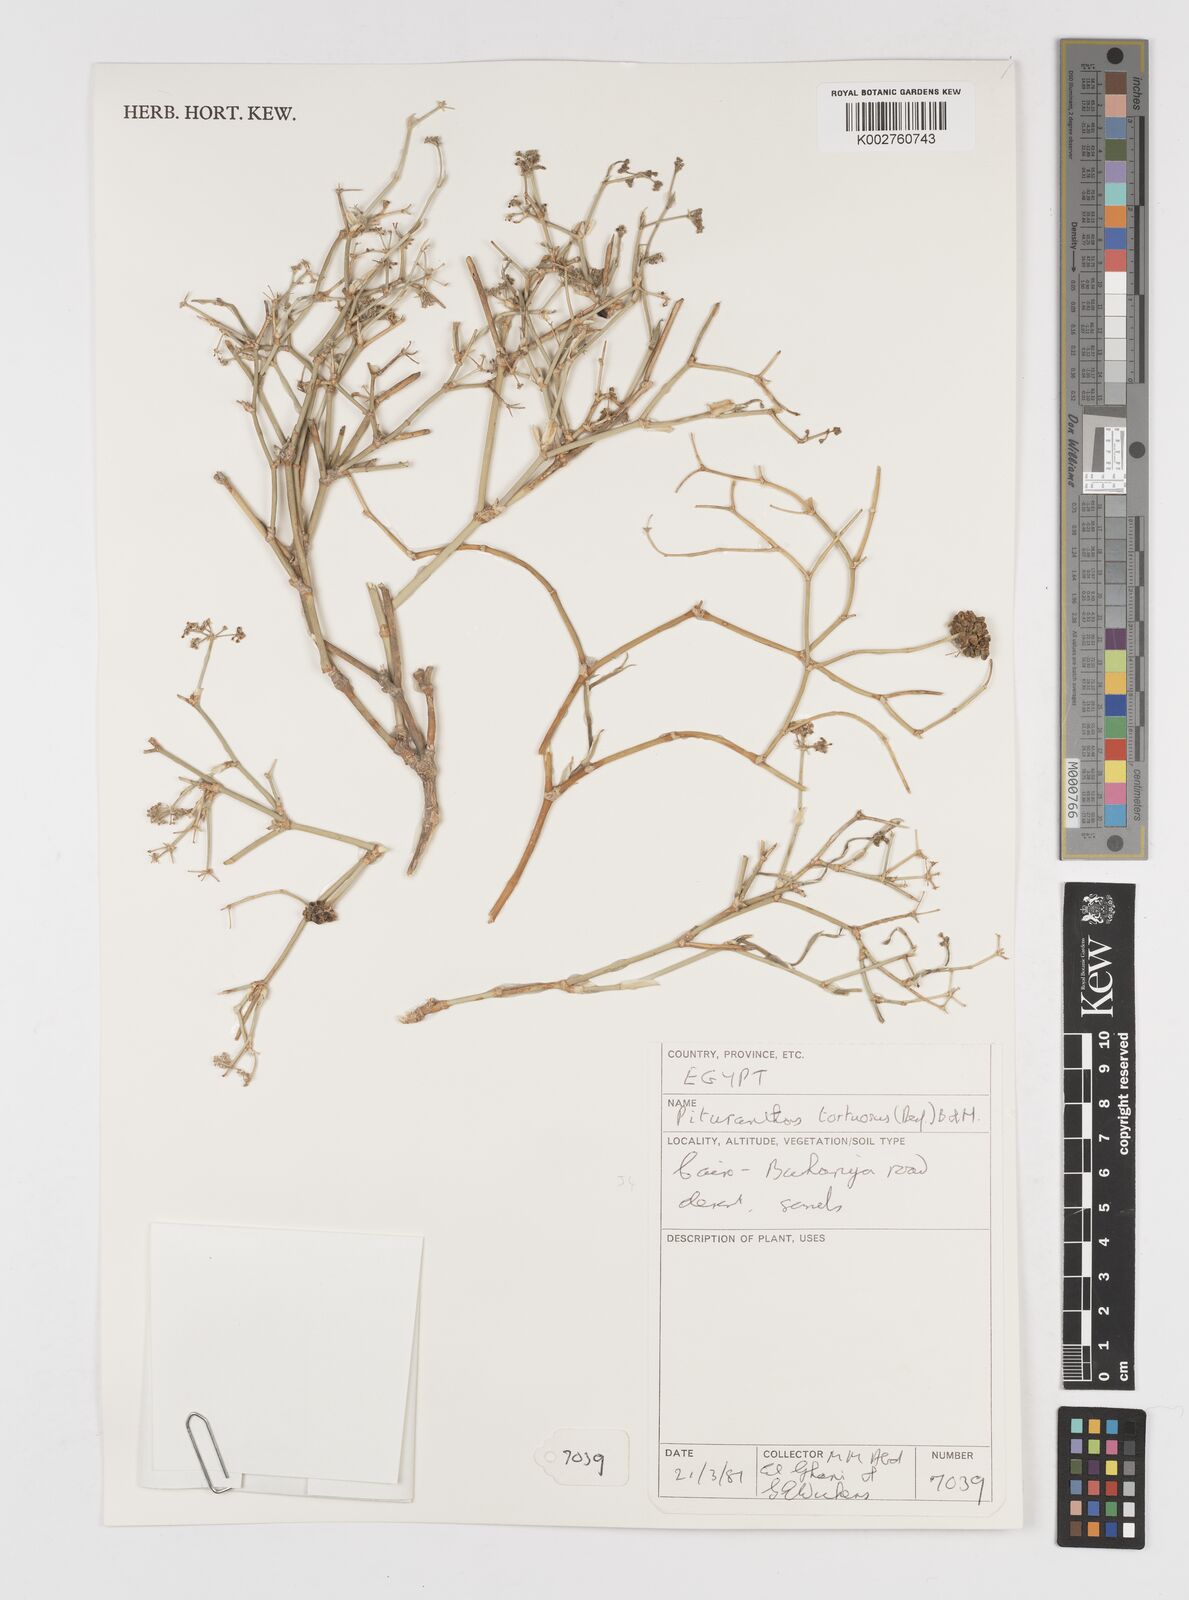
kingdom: Plantae
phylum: Tracheophyta
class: Magnoliopsida
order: Apiales
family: Apiaceae
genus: Deverra
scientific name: Deverra tortuosa
